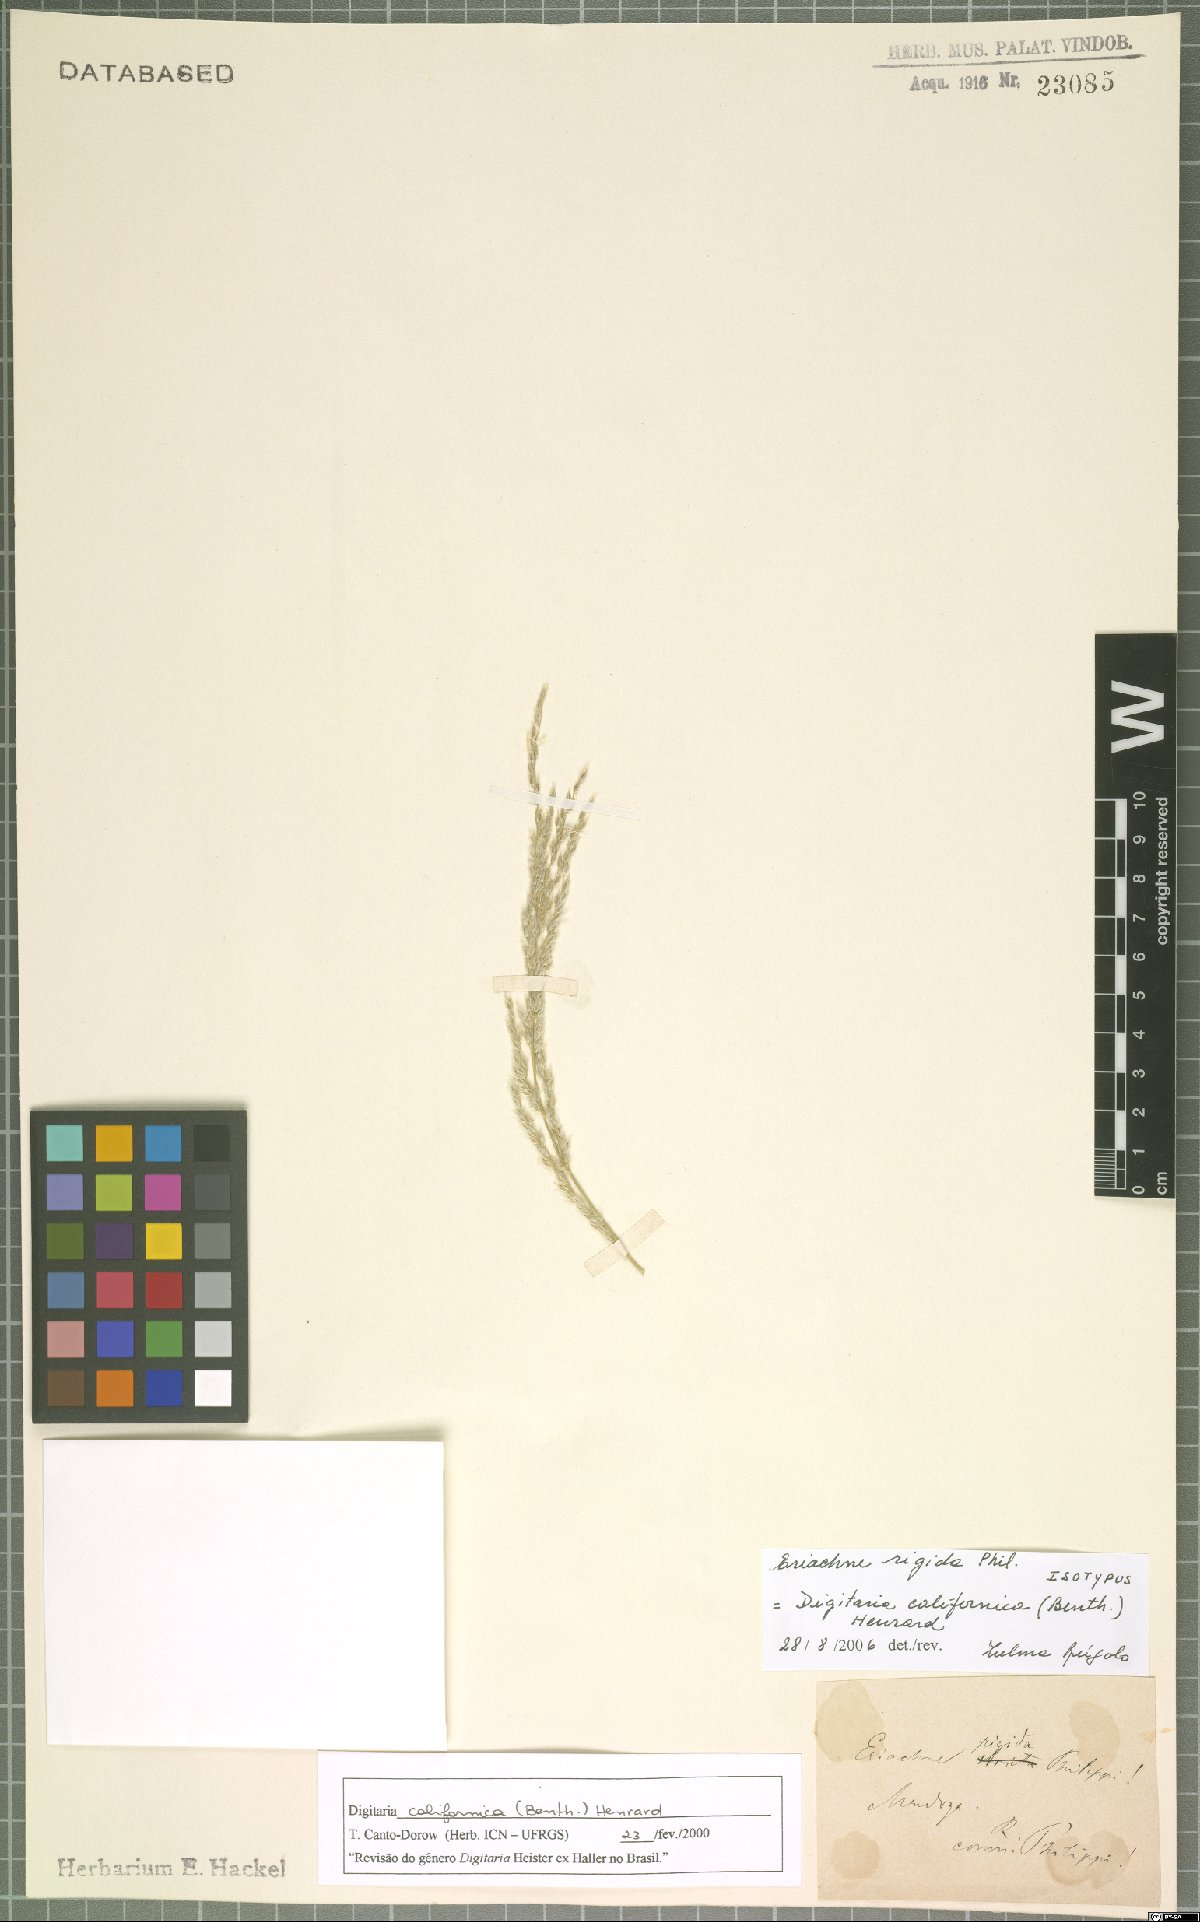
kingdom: Plantae
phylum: Tracheophyta
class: Liliopsida
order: Poales
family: Poaceae
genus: Digitaria
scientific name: Digitaria californica
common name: Arizona cottontop
